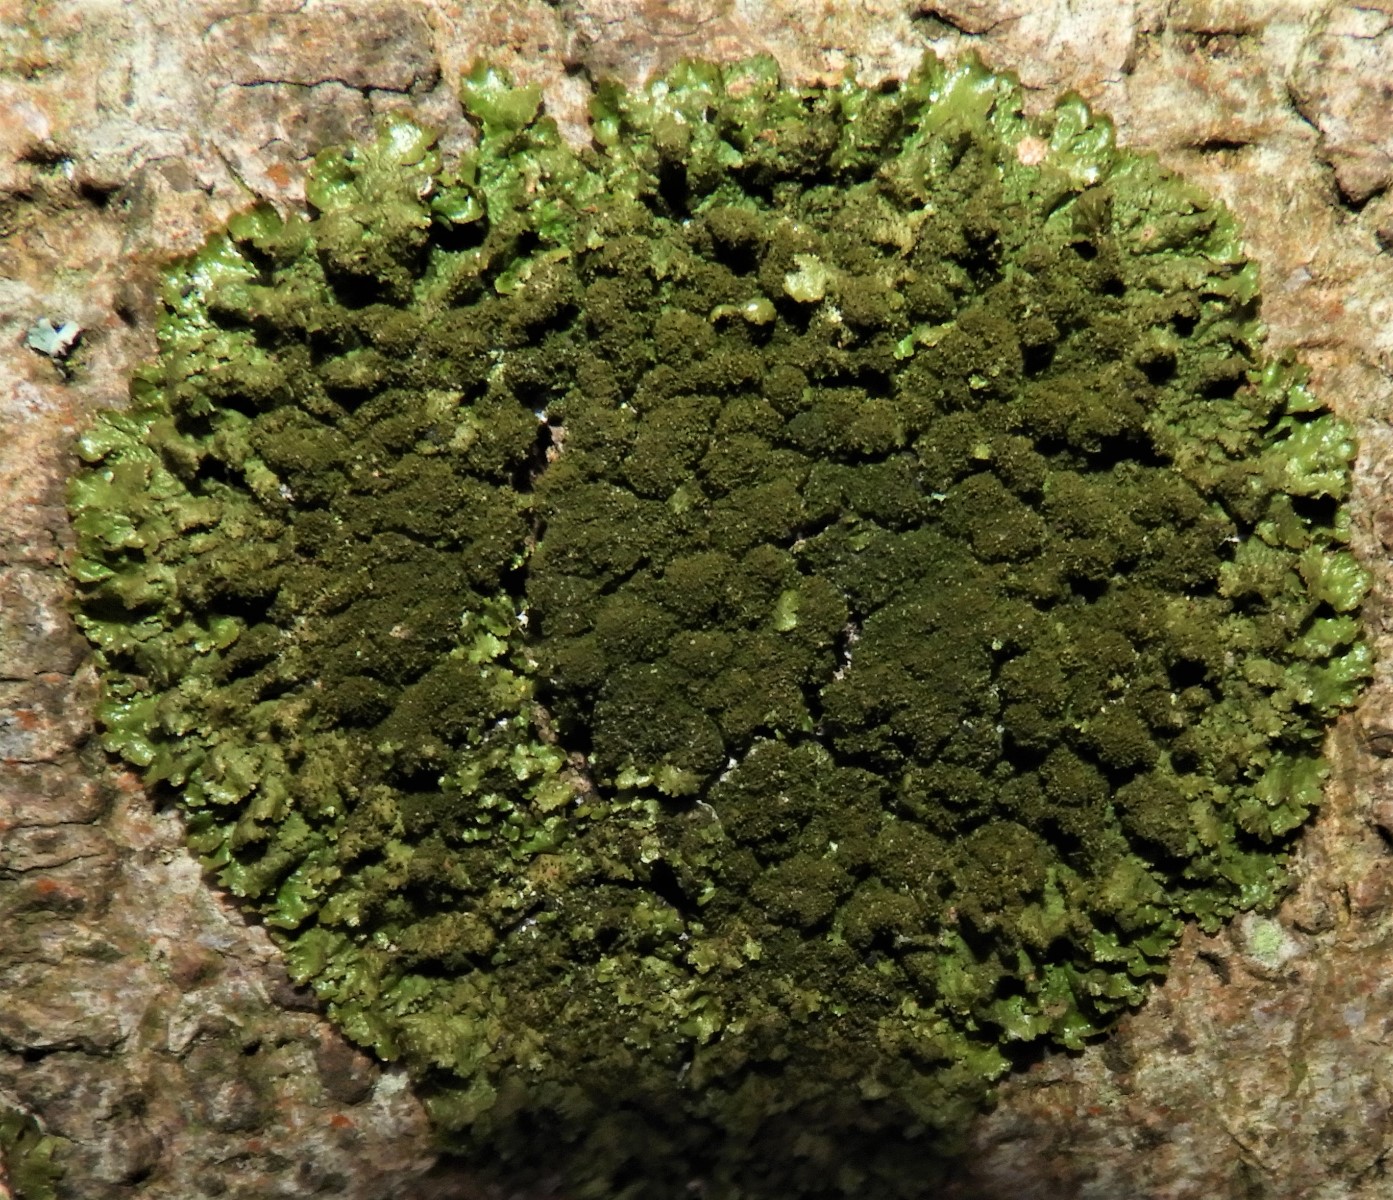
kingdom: Fungi
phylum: Ascomycota
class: Lecanoromycetes
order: Lecanorales
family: Parmeliaceae
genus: Melanelixia
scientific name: Melanelixia glabratula
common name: glinsende skållav
